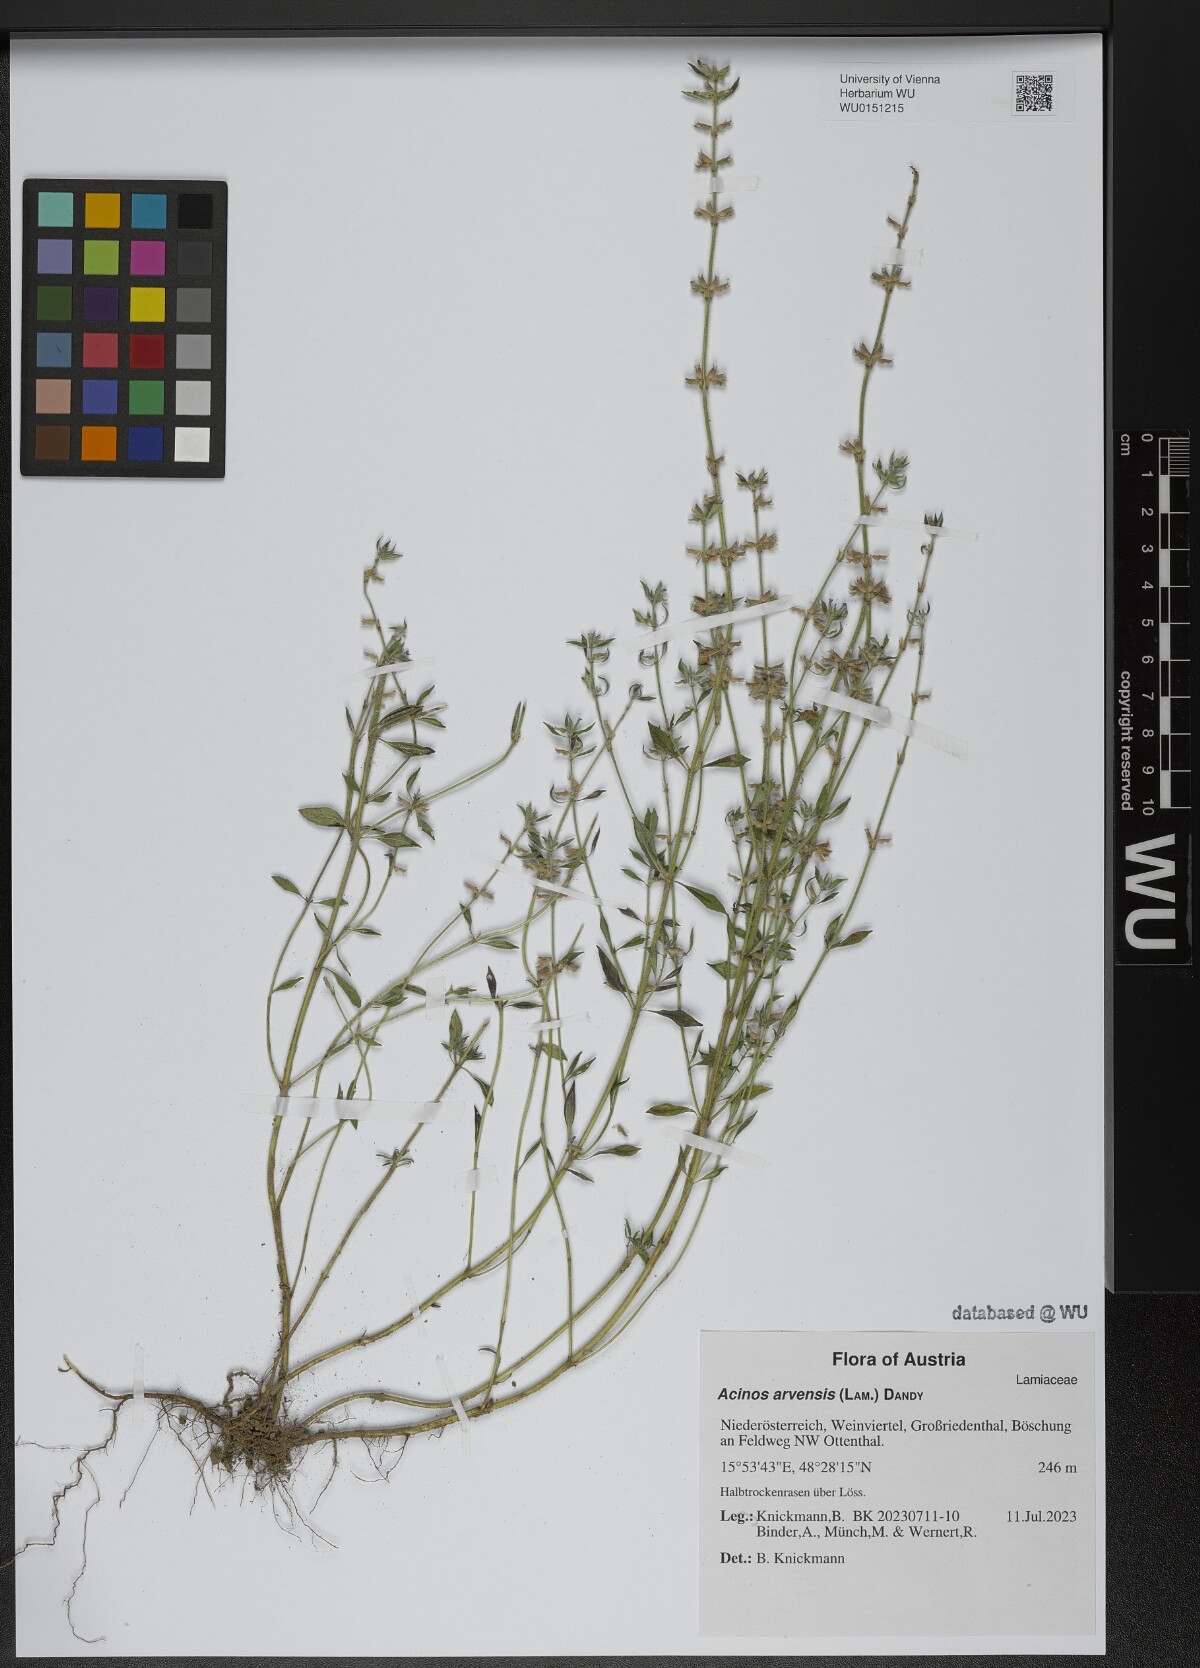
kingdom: Plantae
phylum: Tracheophyta
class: Magnoliopsida
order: Lamiales
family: Lamiaceae
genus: Clinopodium
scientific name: Clinopodium acinos
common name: Basil thyme
